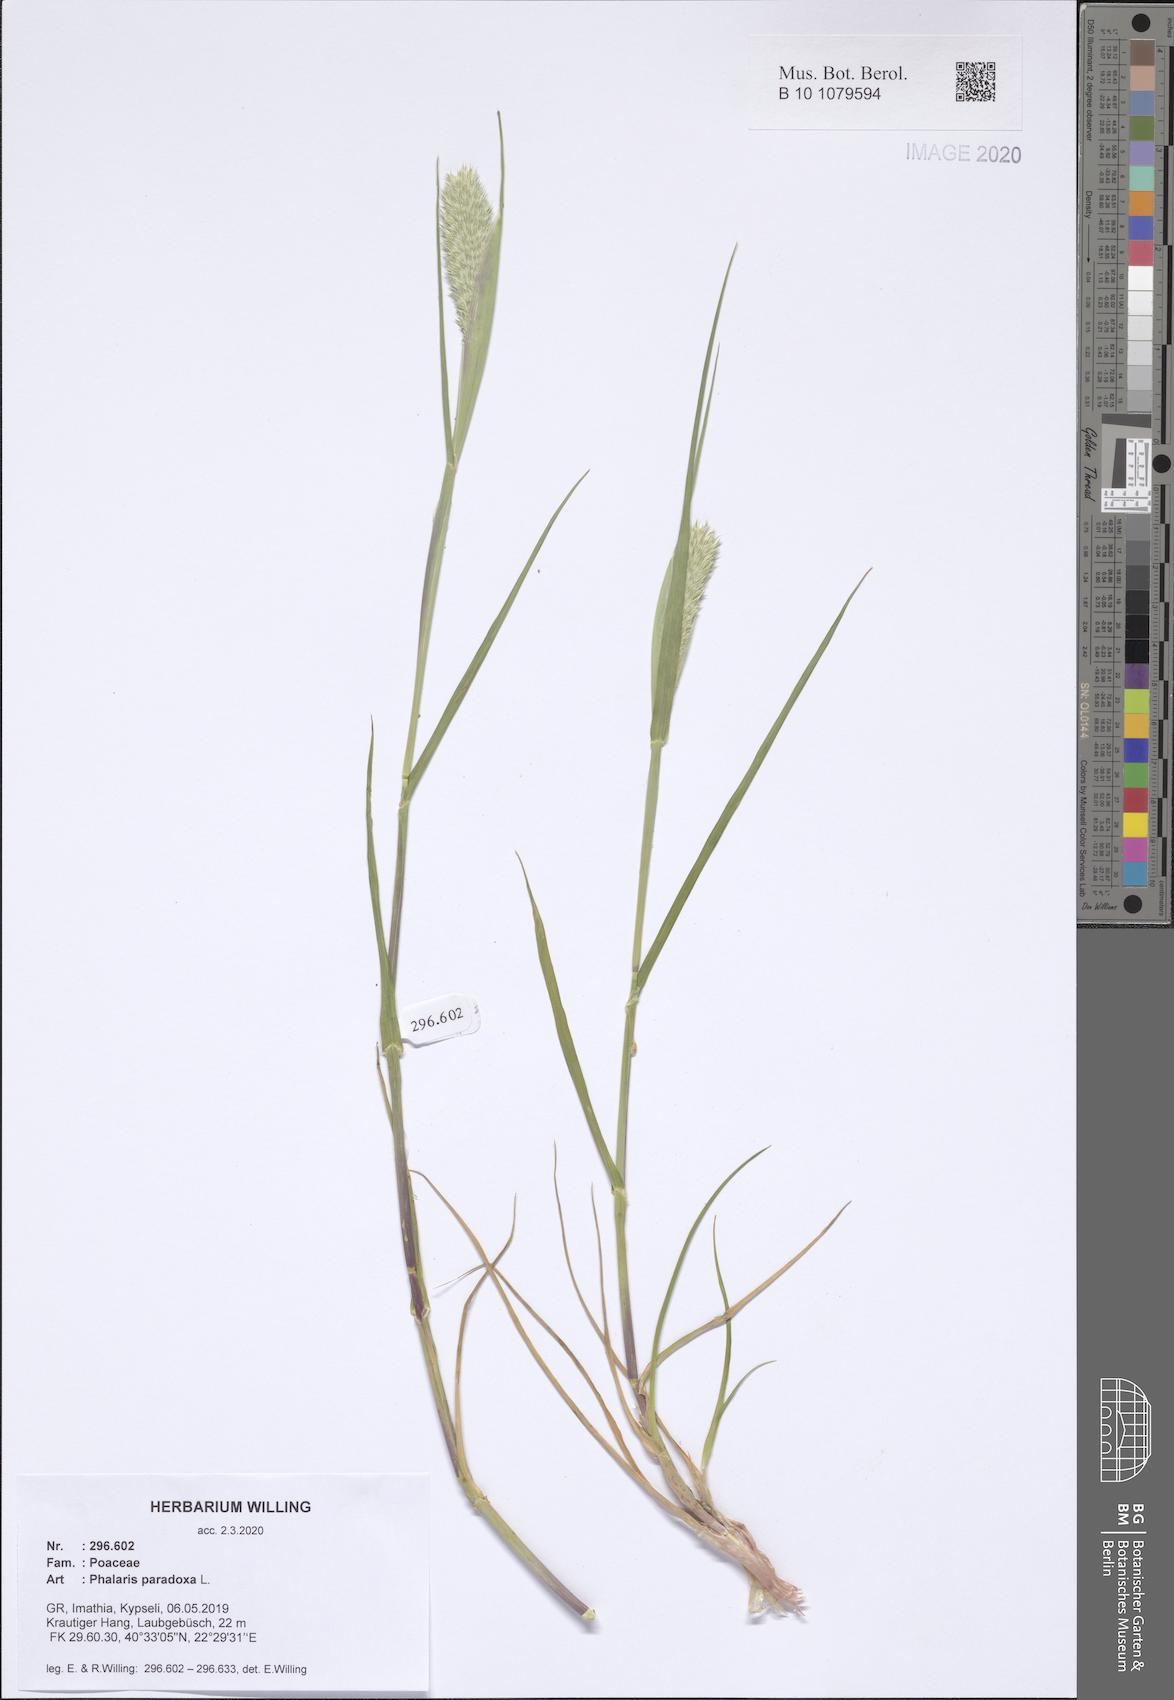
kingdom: Plantae
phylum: Tracheophyta
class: Liliopsida
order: Poales
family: Poaceae
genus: Phalaris
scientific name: Phalaris paradoxa
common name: Awned canary-grass
